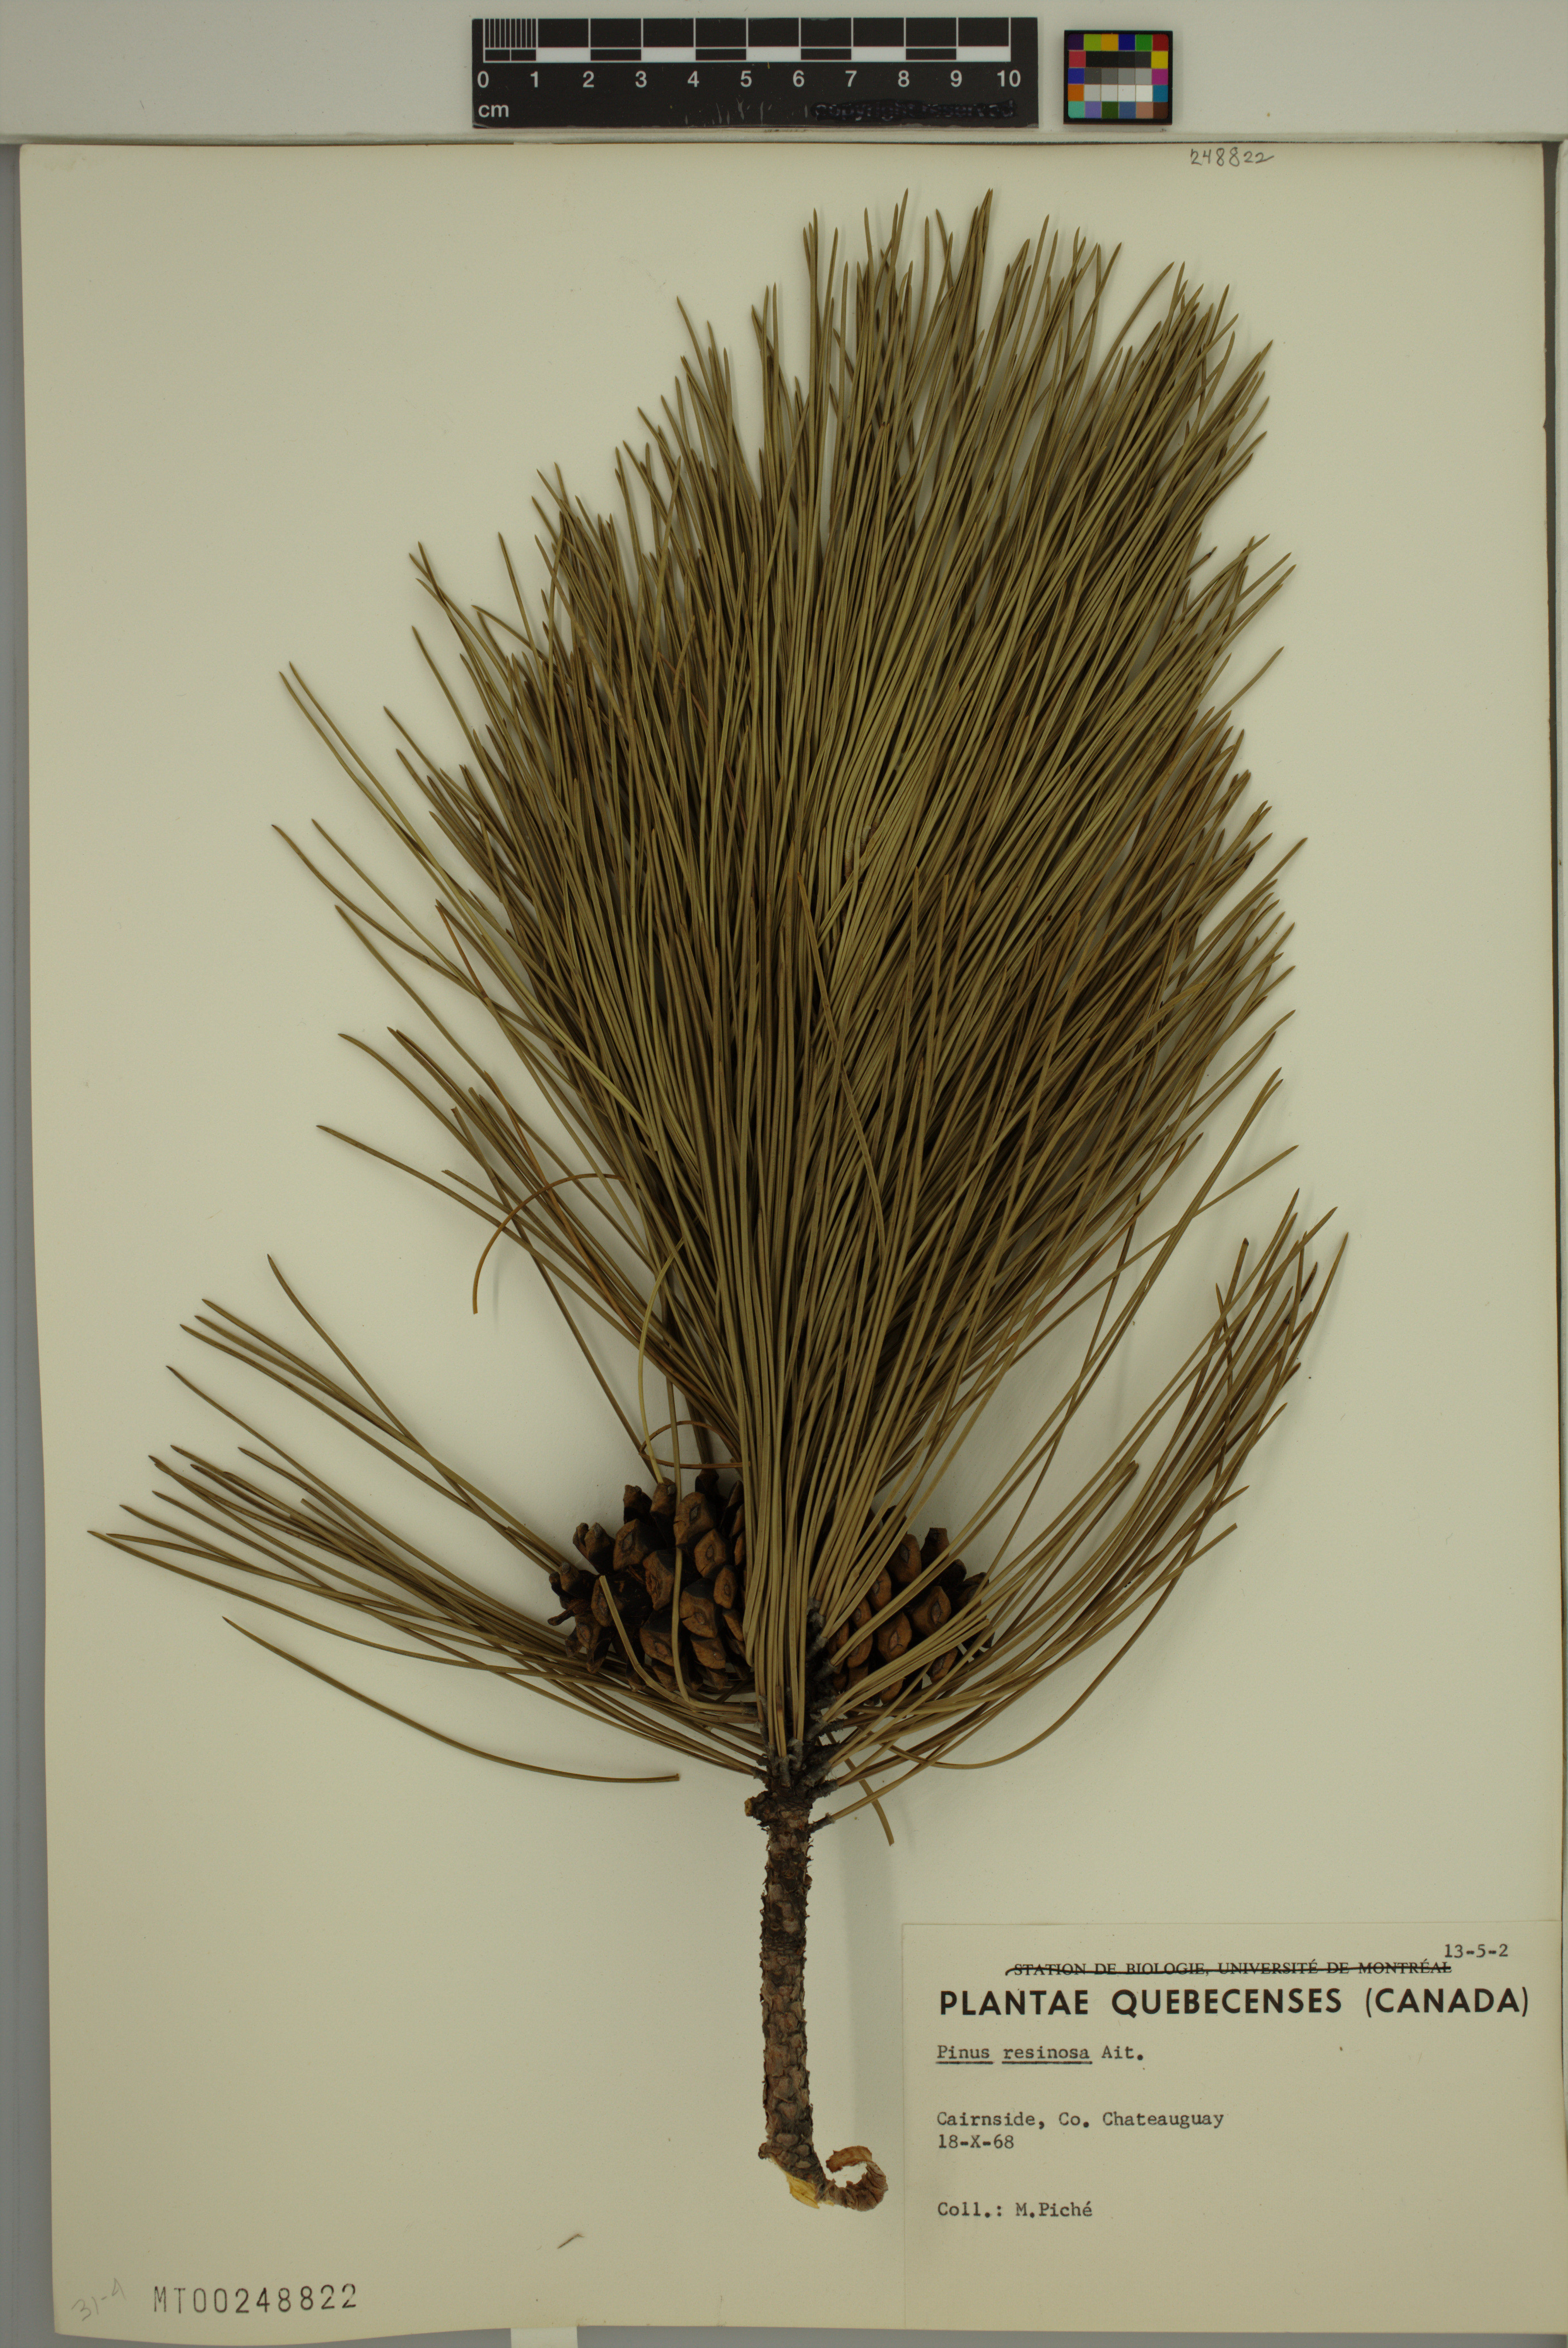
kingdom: Plantae
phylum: Tracheophyta
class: Pinopsida
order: Pinales
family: Pinaceae
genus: Pinus
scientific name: Pinus resinosa
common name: Norway pine
